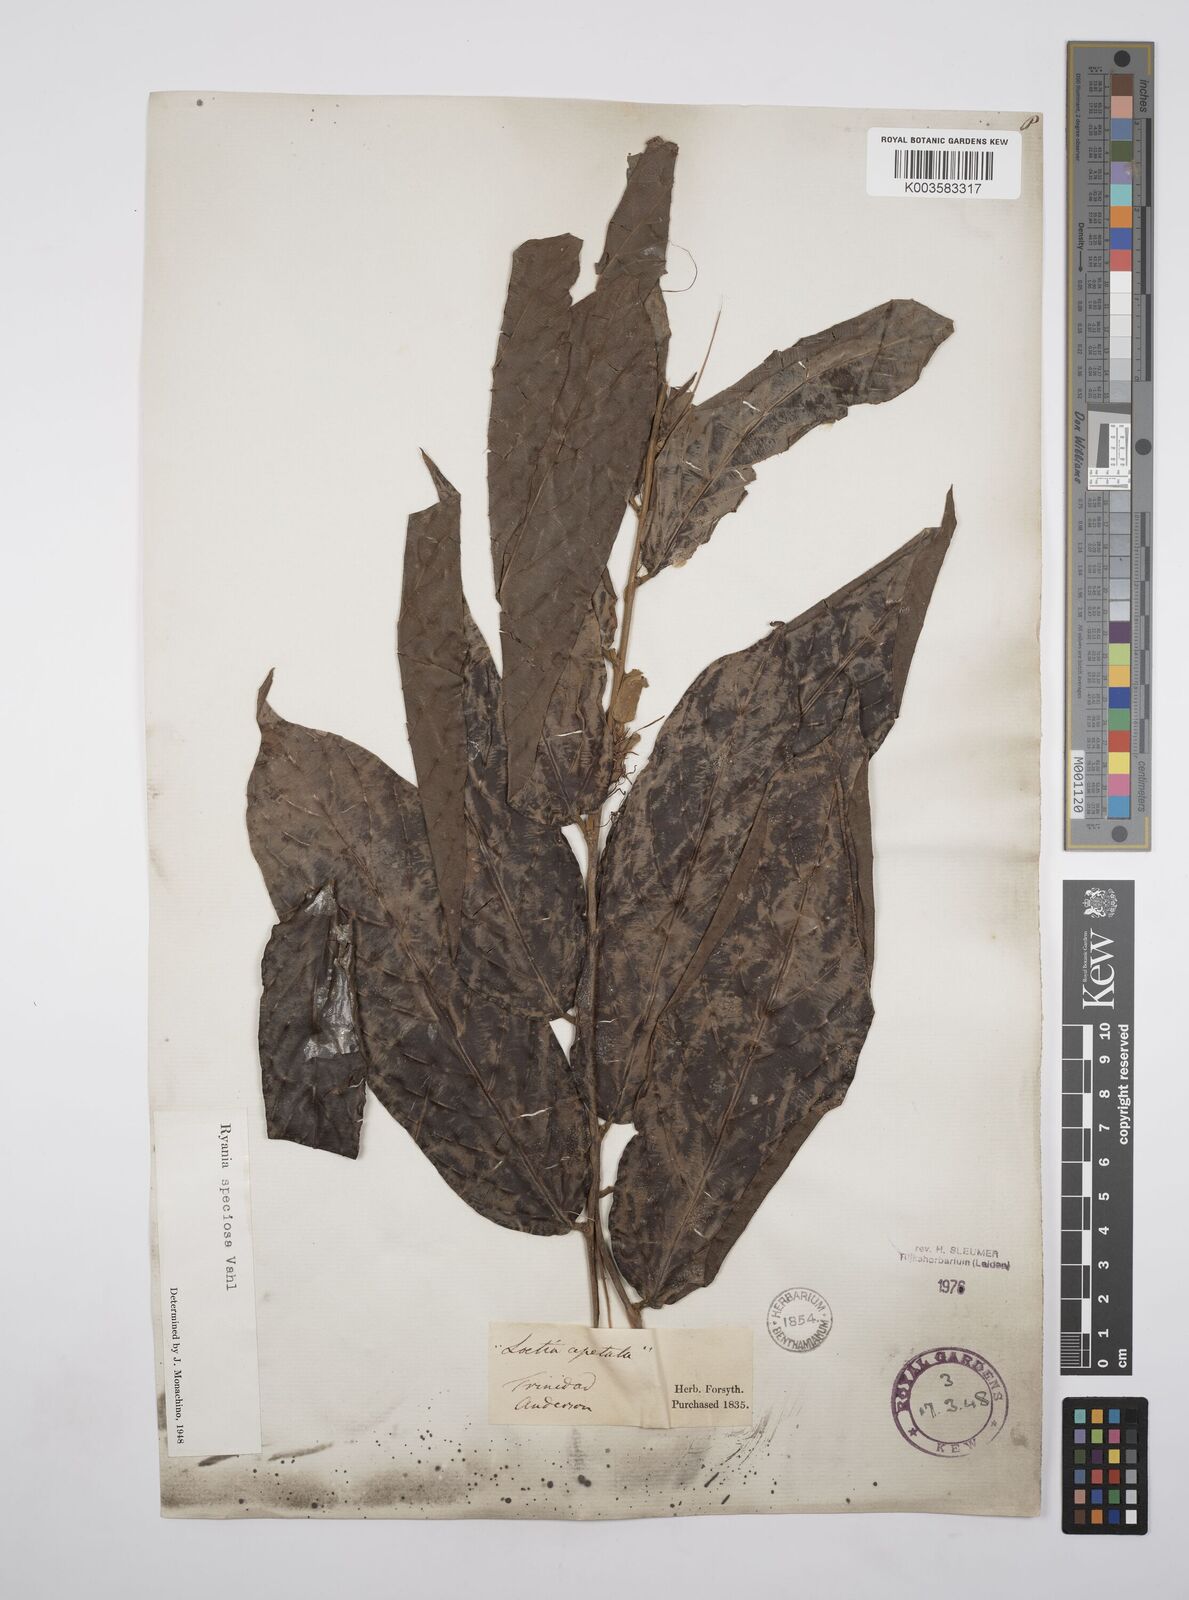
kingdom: Plantae
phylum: Tracheophyta
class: Magnoliopsida
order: Malpighiales
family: Salicaceae
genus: Ryania
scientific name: Ryania speciosa
